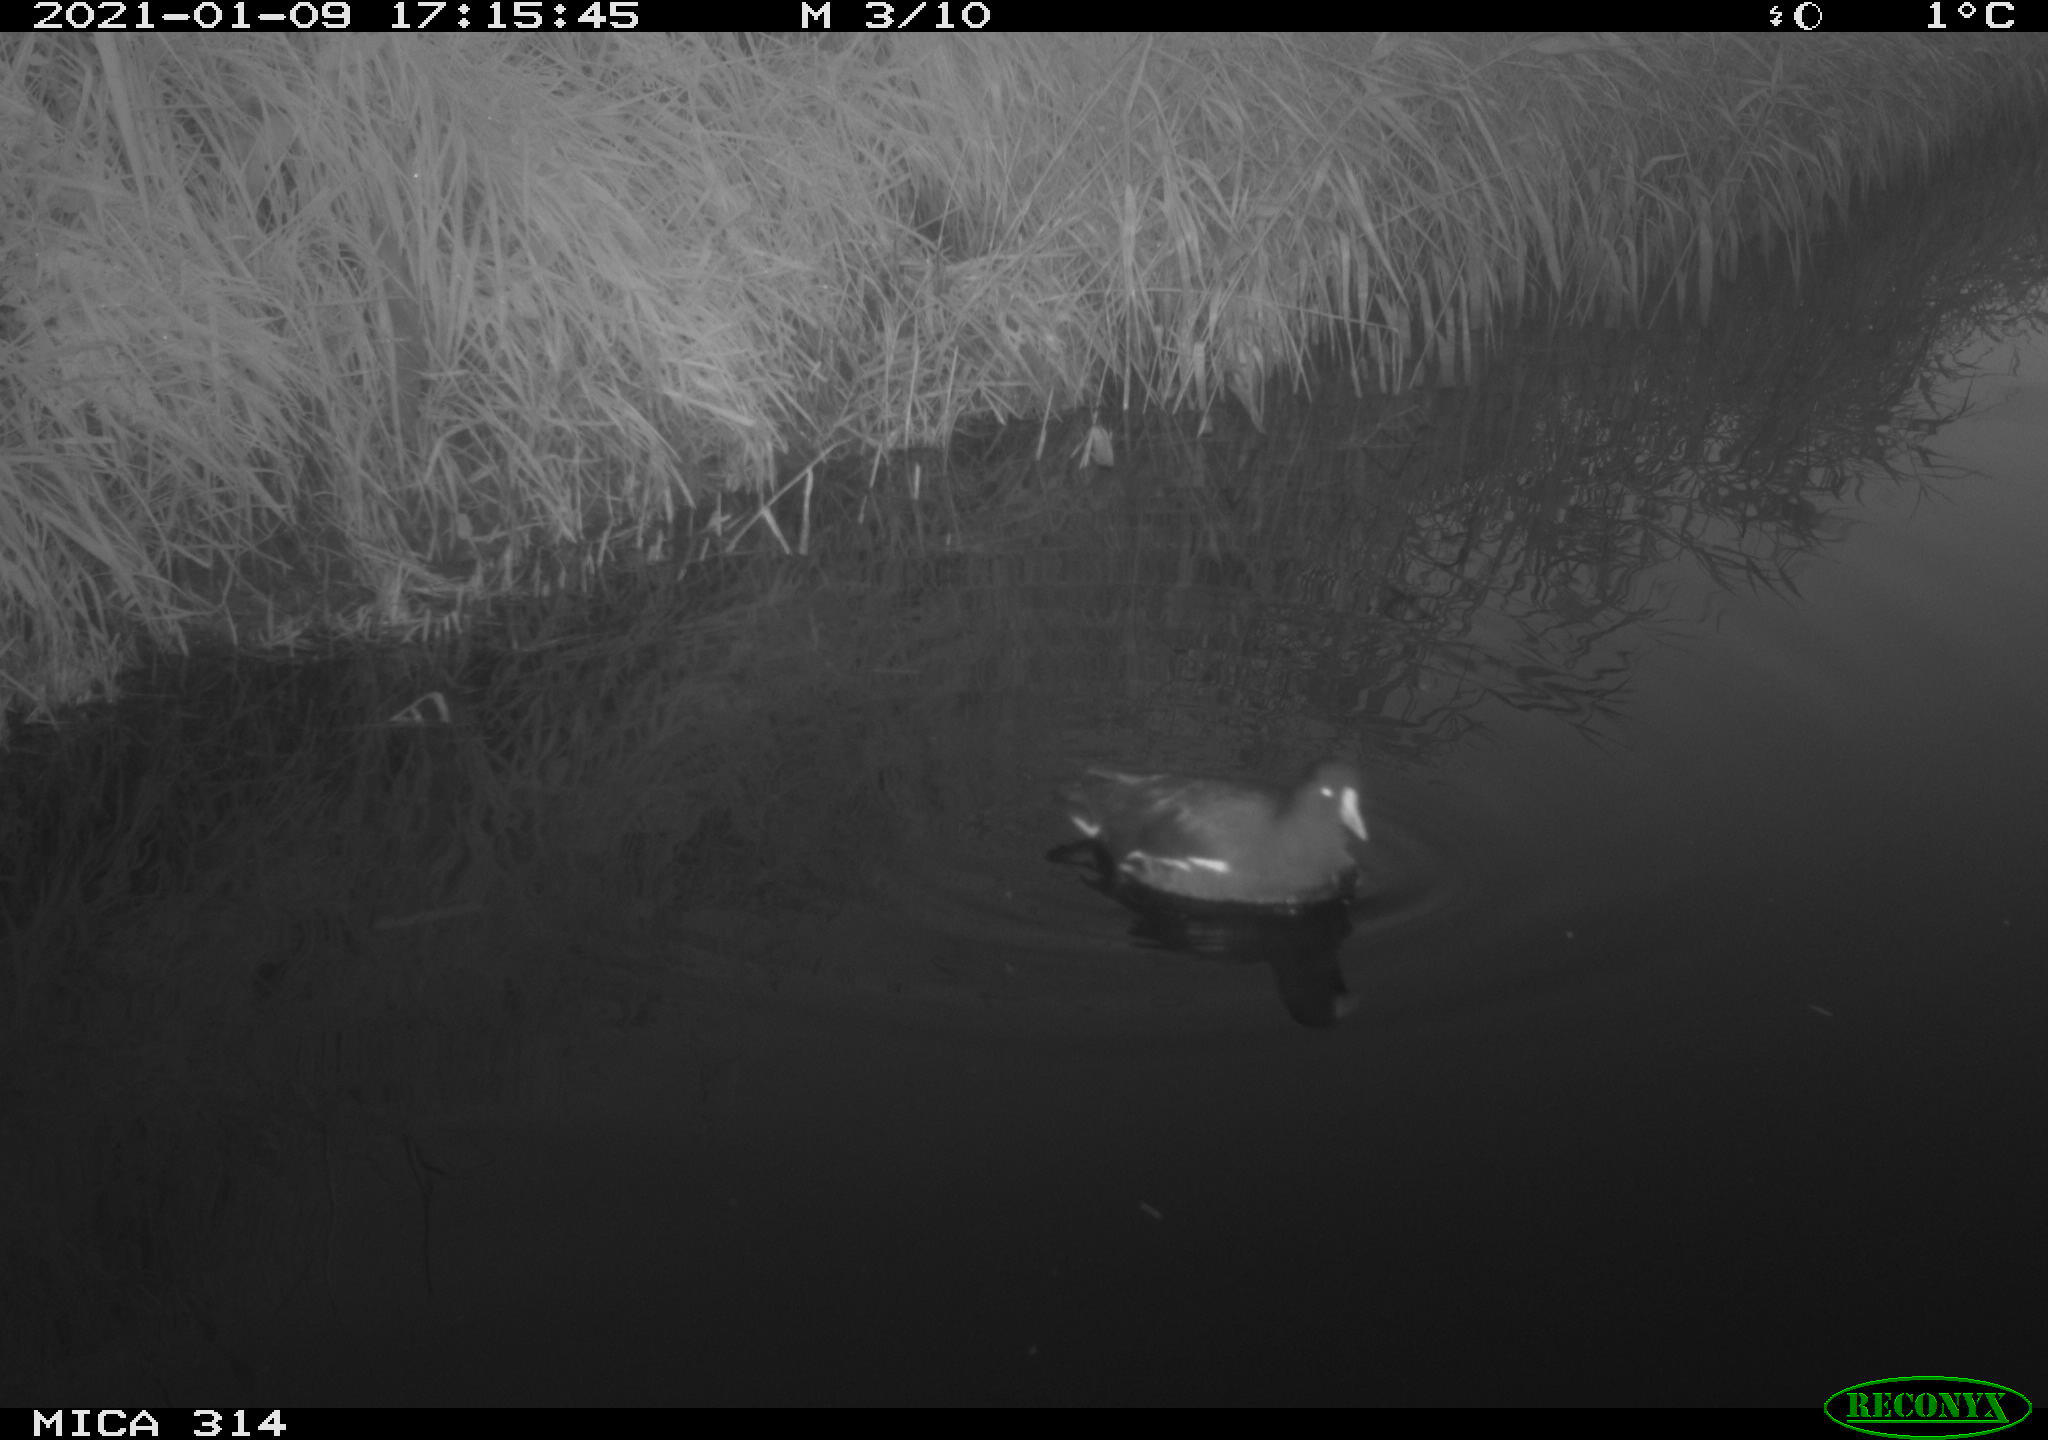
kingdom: Animalia
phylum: Chordata
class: Aves
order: Gruiformes
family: Rallidae
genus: Gallinula
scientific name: Gallinula chloropus
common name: Common moorhen
